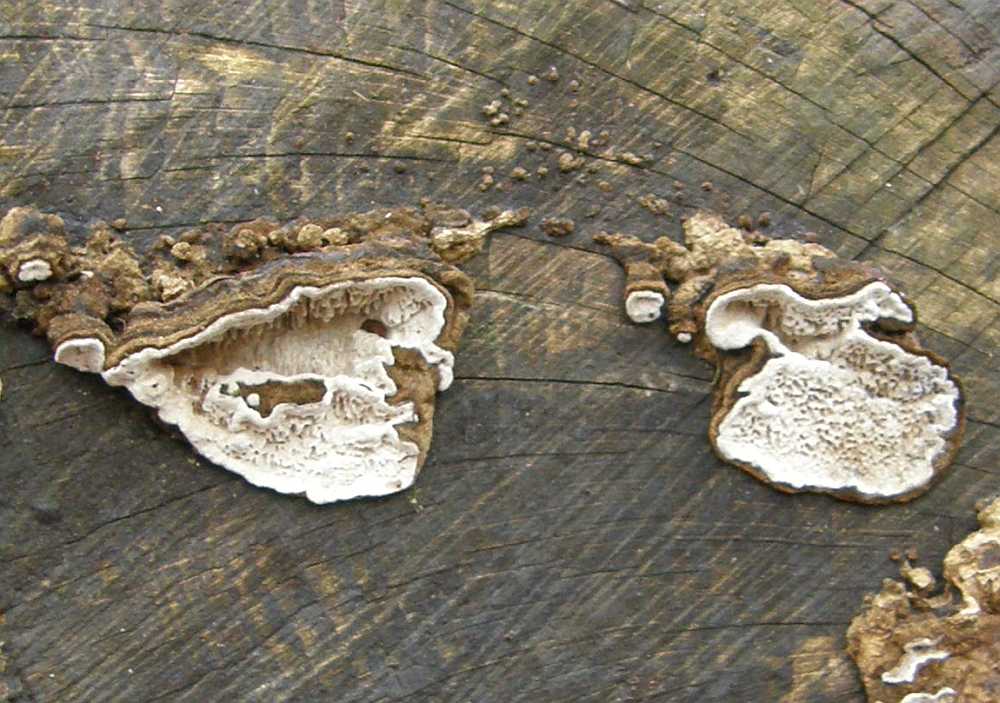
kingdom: Fungi
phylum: Basidiomycota
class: Agaricomycetes
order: Polyporales
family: Polyporaceae
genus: Podofomes
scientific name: Podofomes mollis
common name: blød begporesvamp
